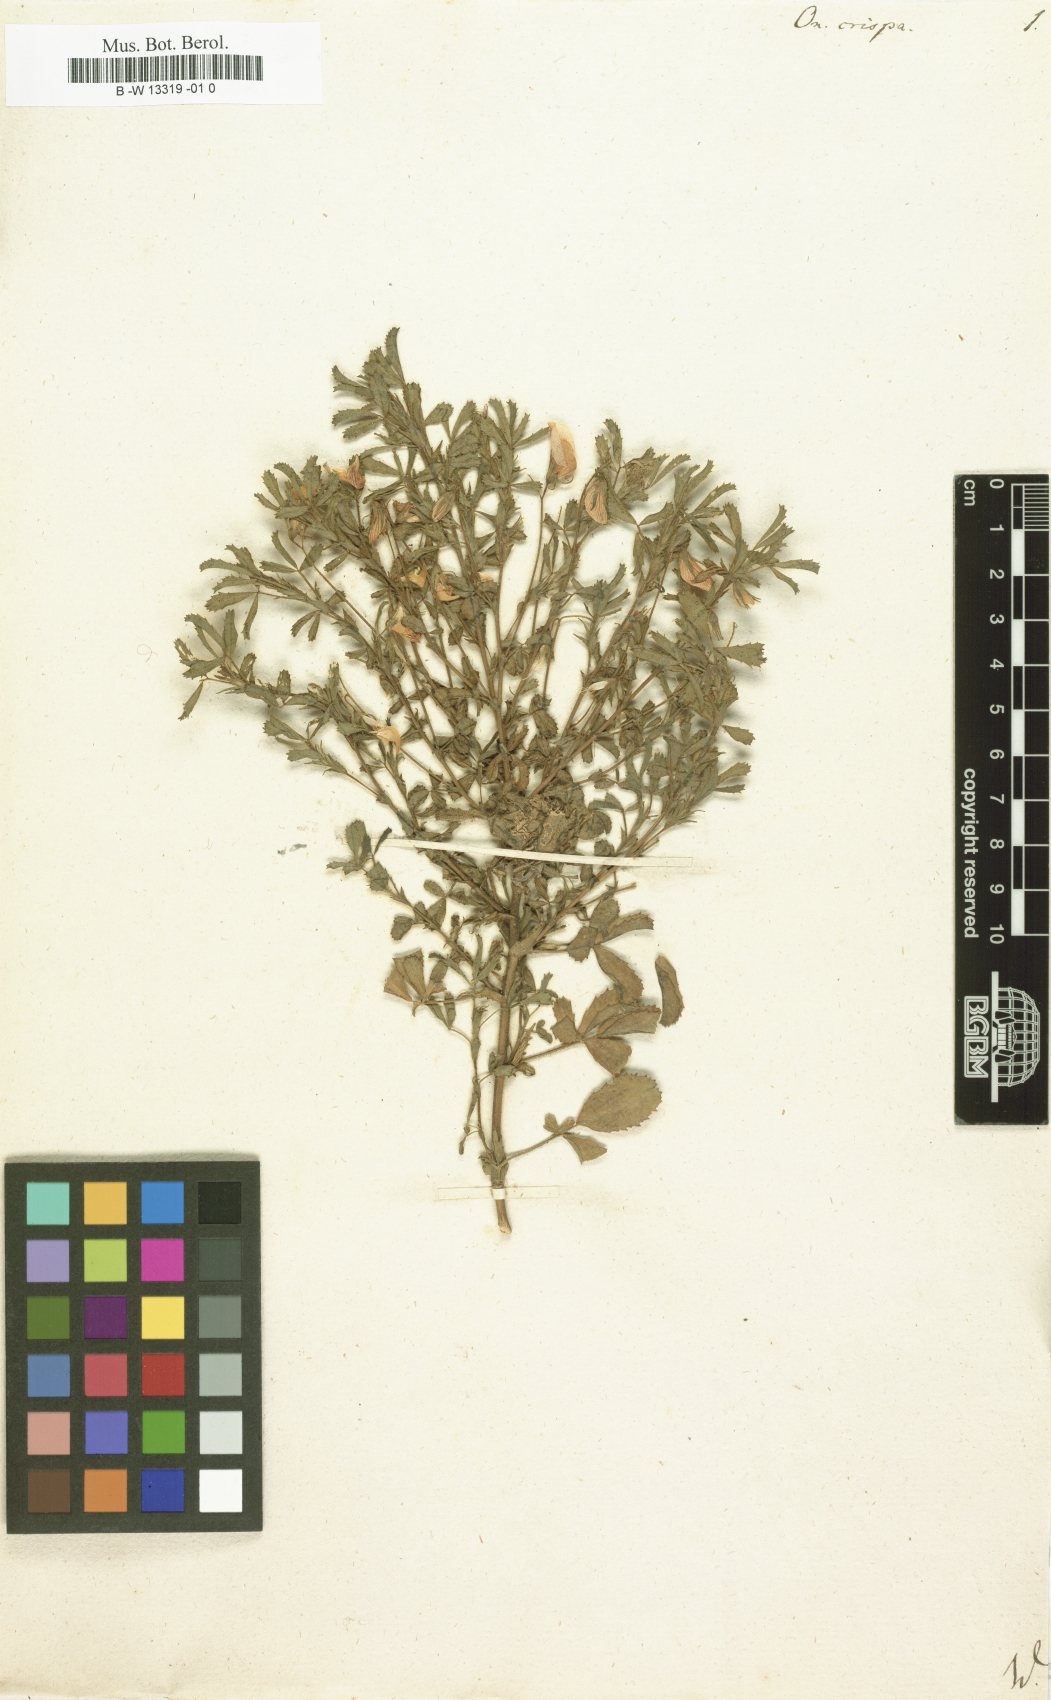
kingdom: Plantae
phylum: Tracheophyta
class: Magnoliopsida
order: Fabales
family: Fabaceae
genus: Ononis
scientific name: Ononis crispa
